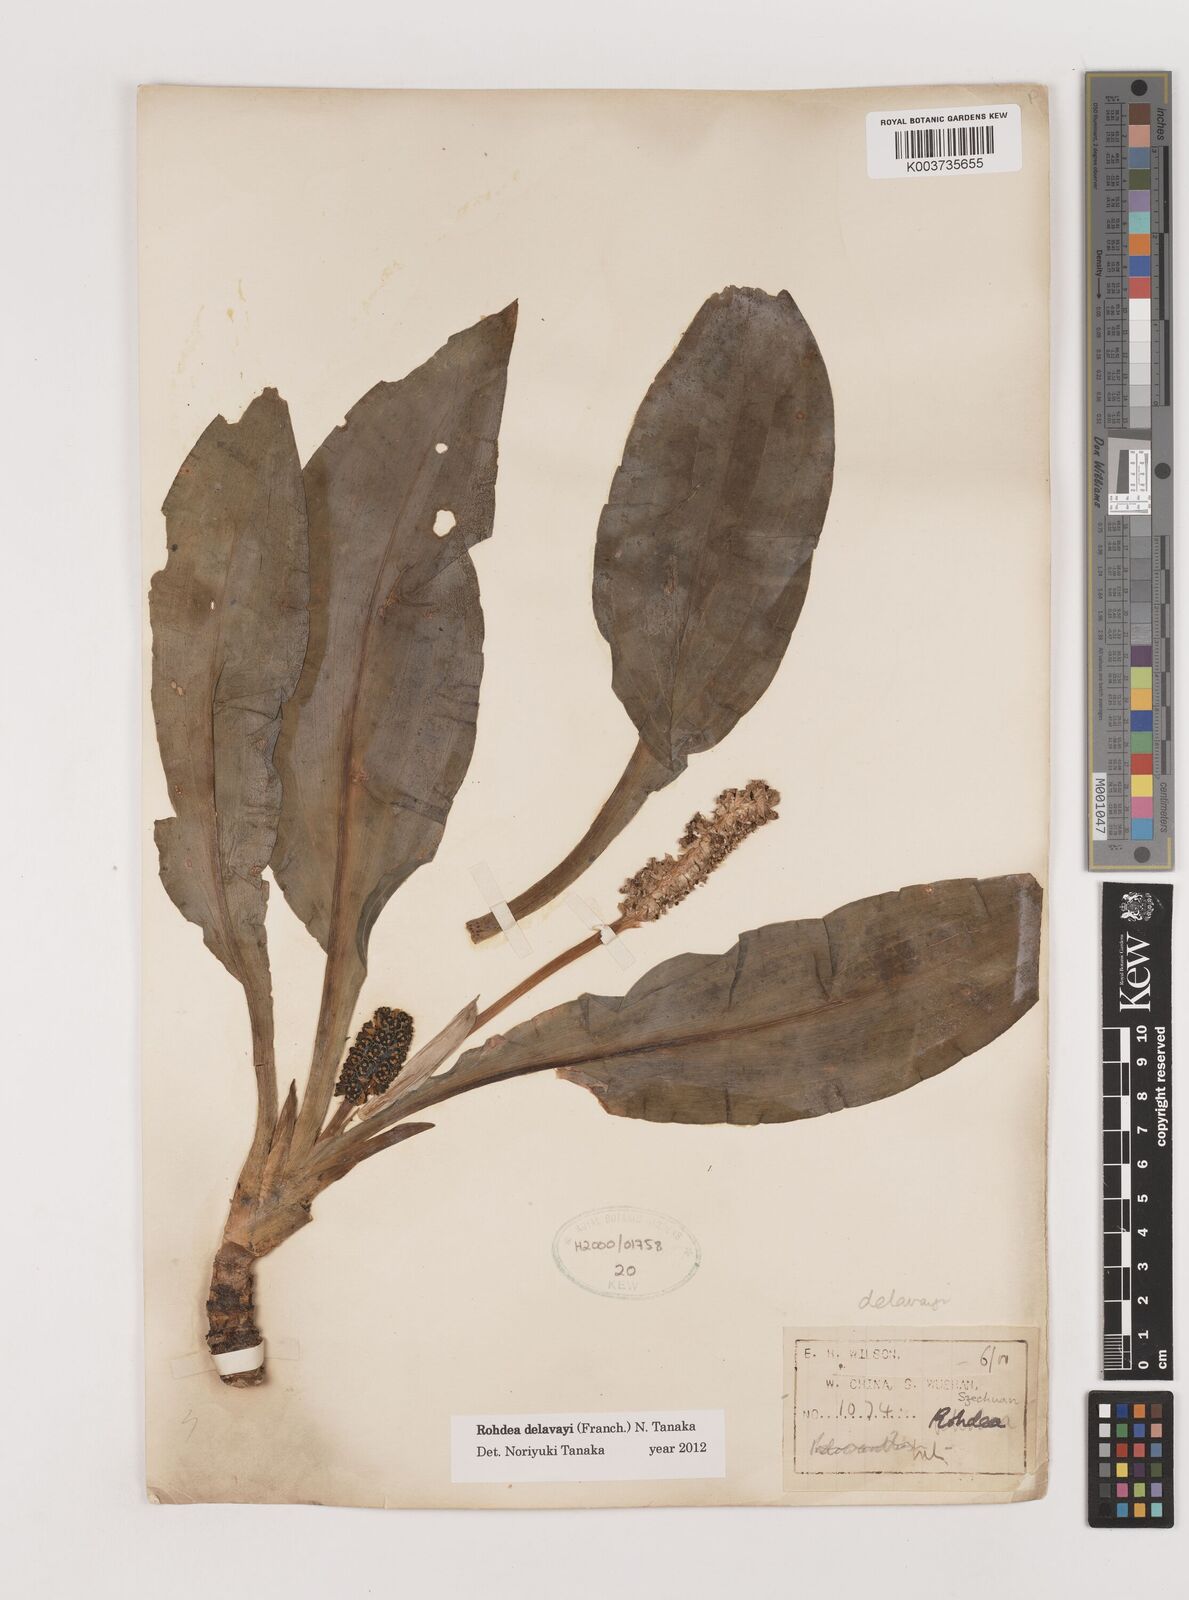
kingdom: Plantae
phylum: Tracheophyta
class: Liliopsida
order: Asparagales
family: Asparagaceae
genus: Rohdea
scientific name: Rohdea delavayi
